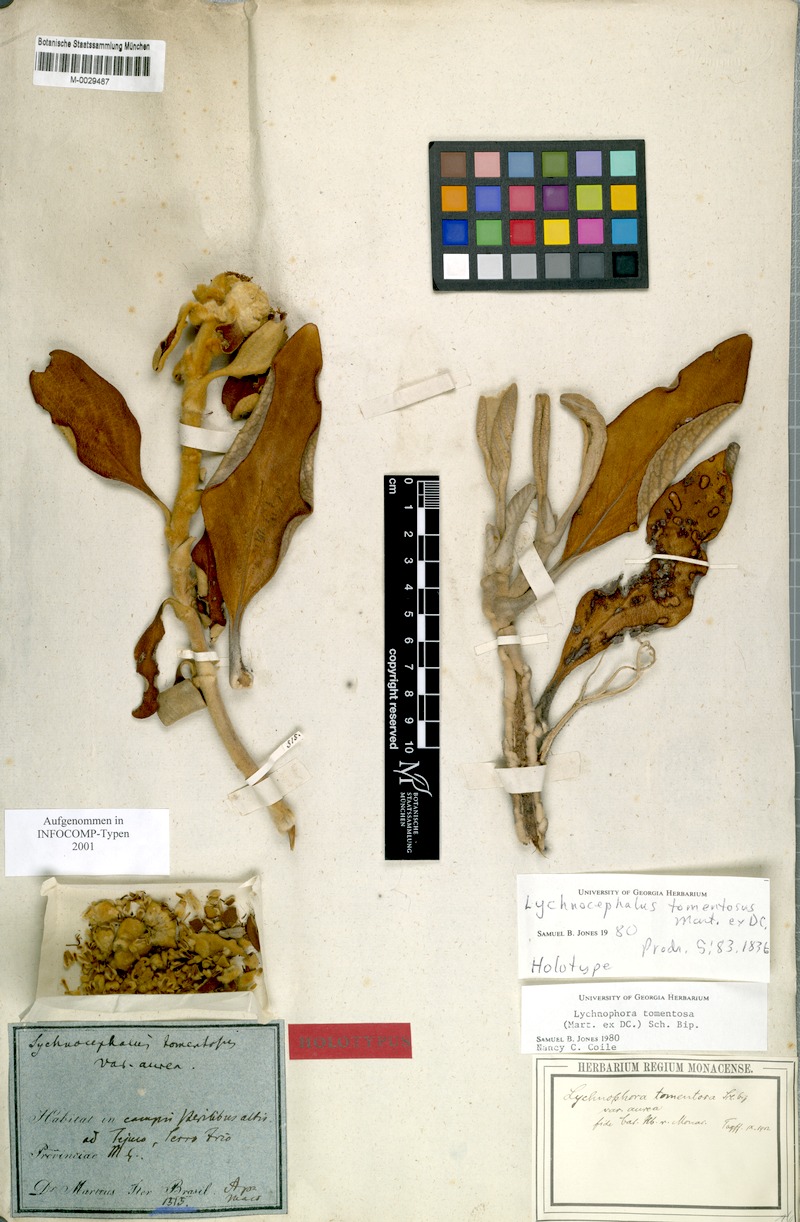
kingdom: Plantae
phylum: Tracheophyta
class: Magnoliopsida
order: Asterales
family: Asteraceae
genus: Lychnocephalus
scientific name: Lychnocephalus tomentosus
